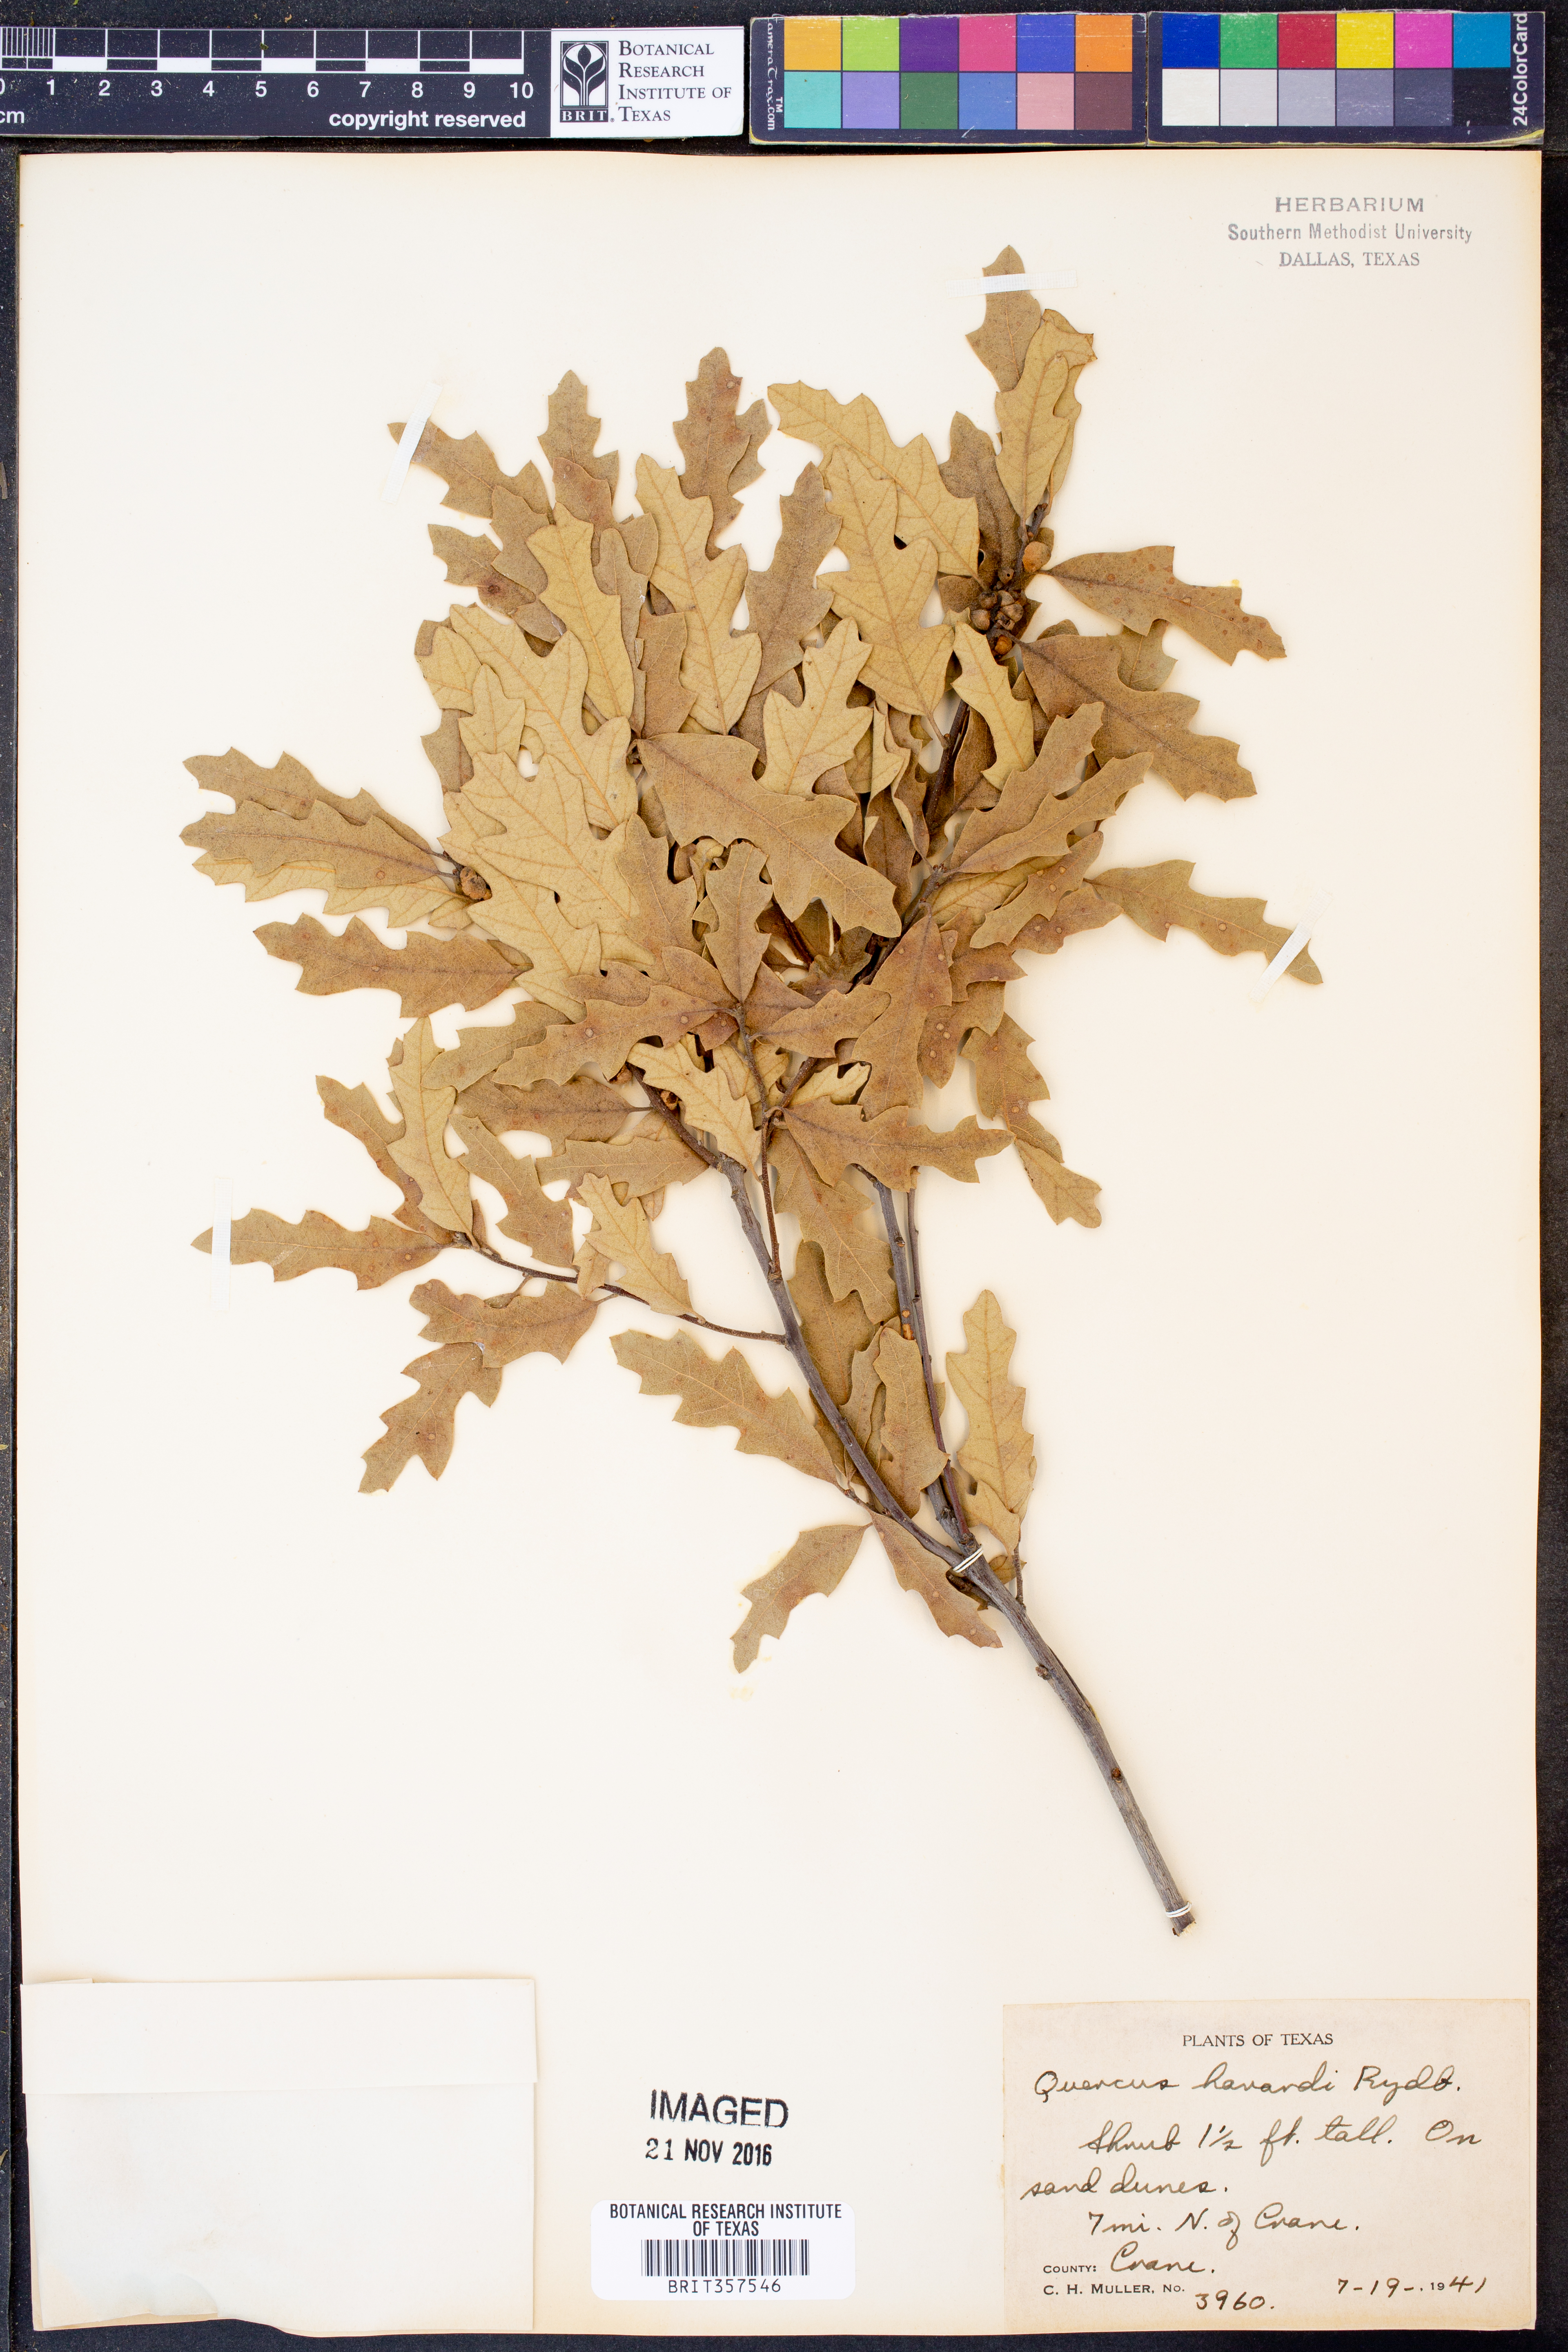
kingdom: Plantae
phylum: Tracheophyta
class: Magnoliopsida
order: Fagales
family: Fagaceae
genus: Quercus
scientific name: Quercus havardii
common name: Shinnery oak
